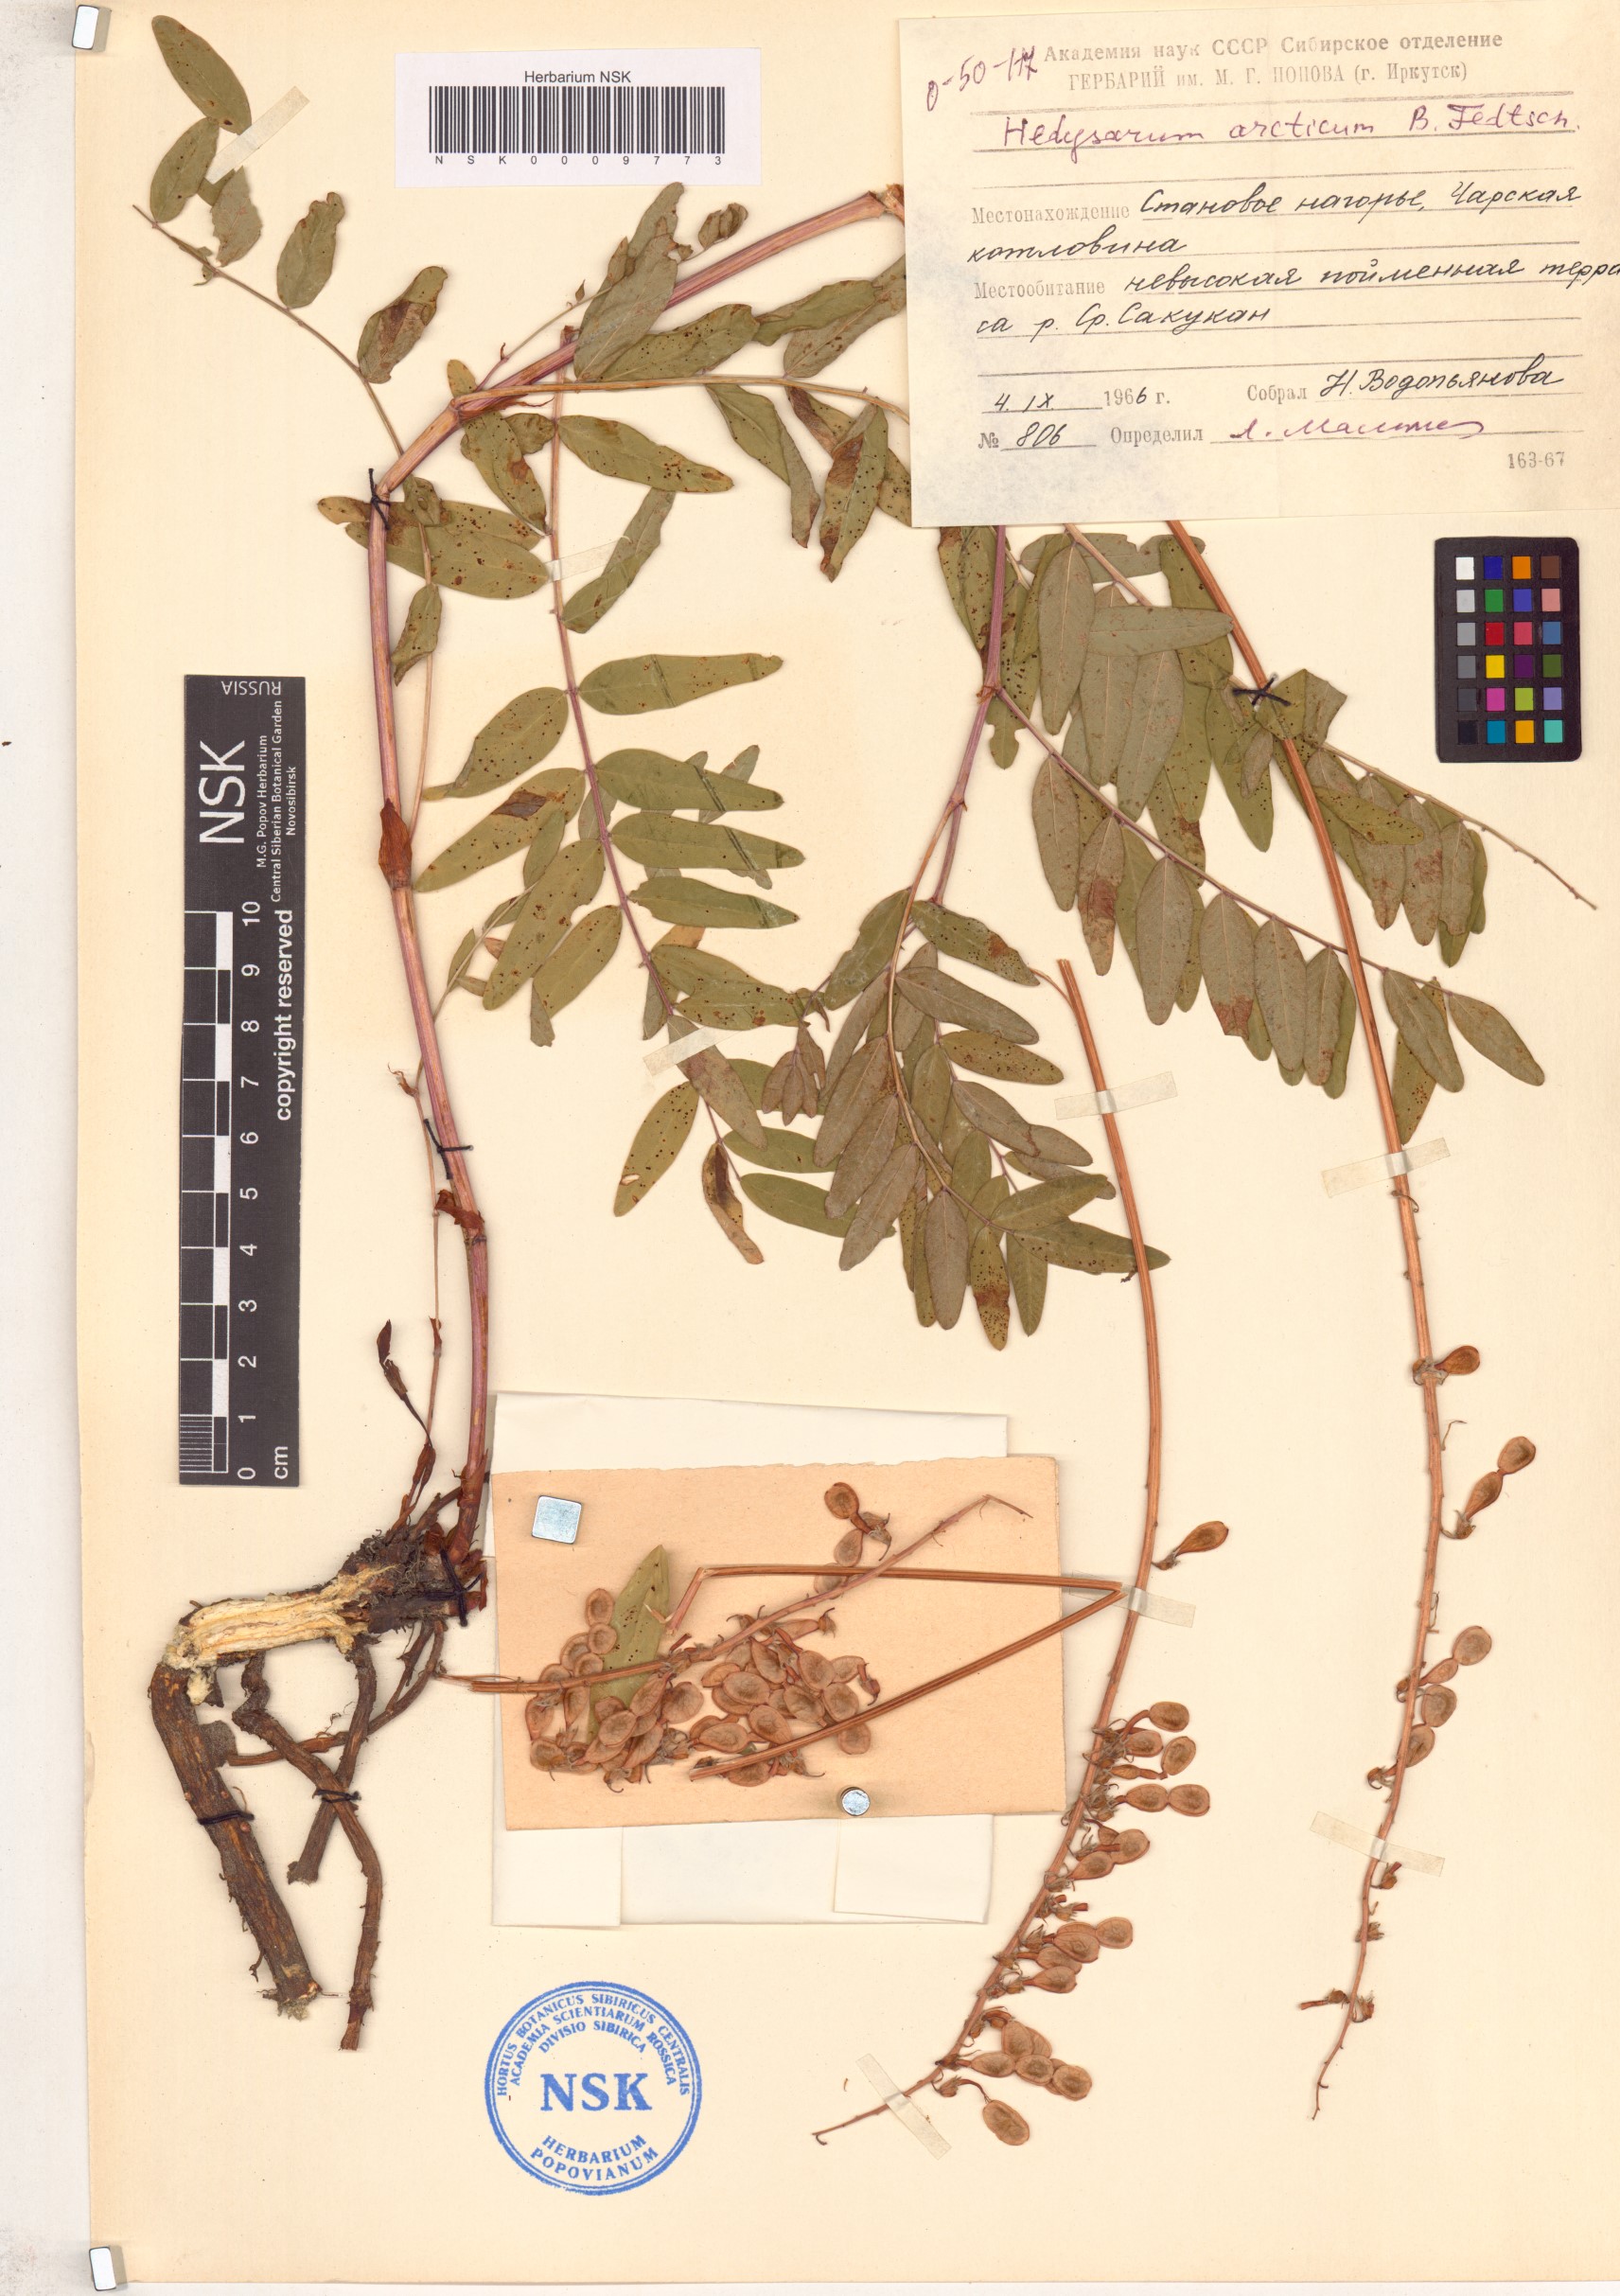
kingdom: Plantae
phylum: Tracheophyta
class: Magnoliopsida
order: Fabales
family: Fabaceae
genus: Hedysarum
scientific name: Hedysarum hedysaroides
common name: Alpine french-honeysuckle
